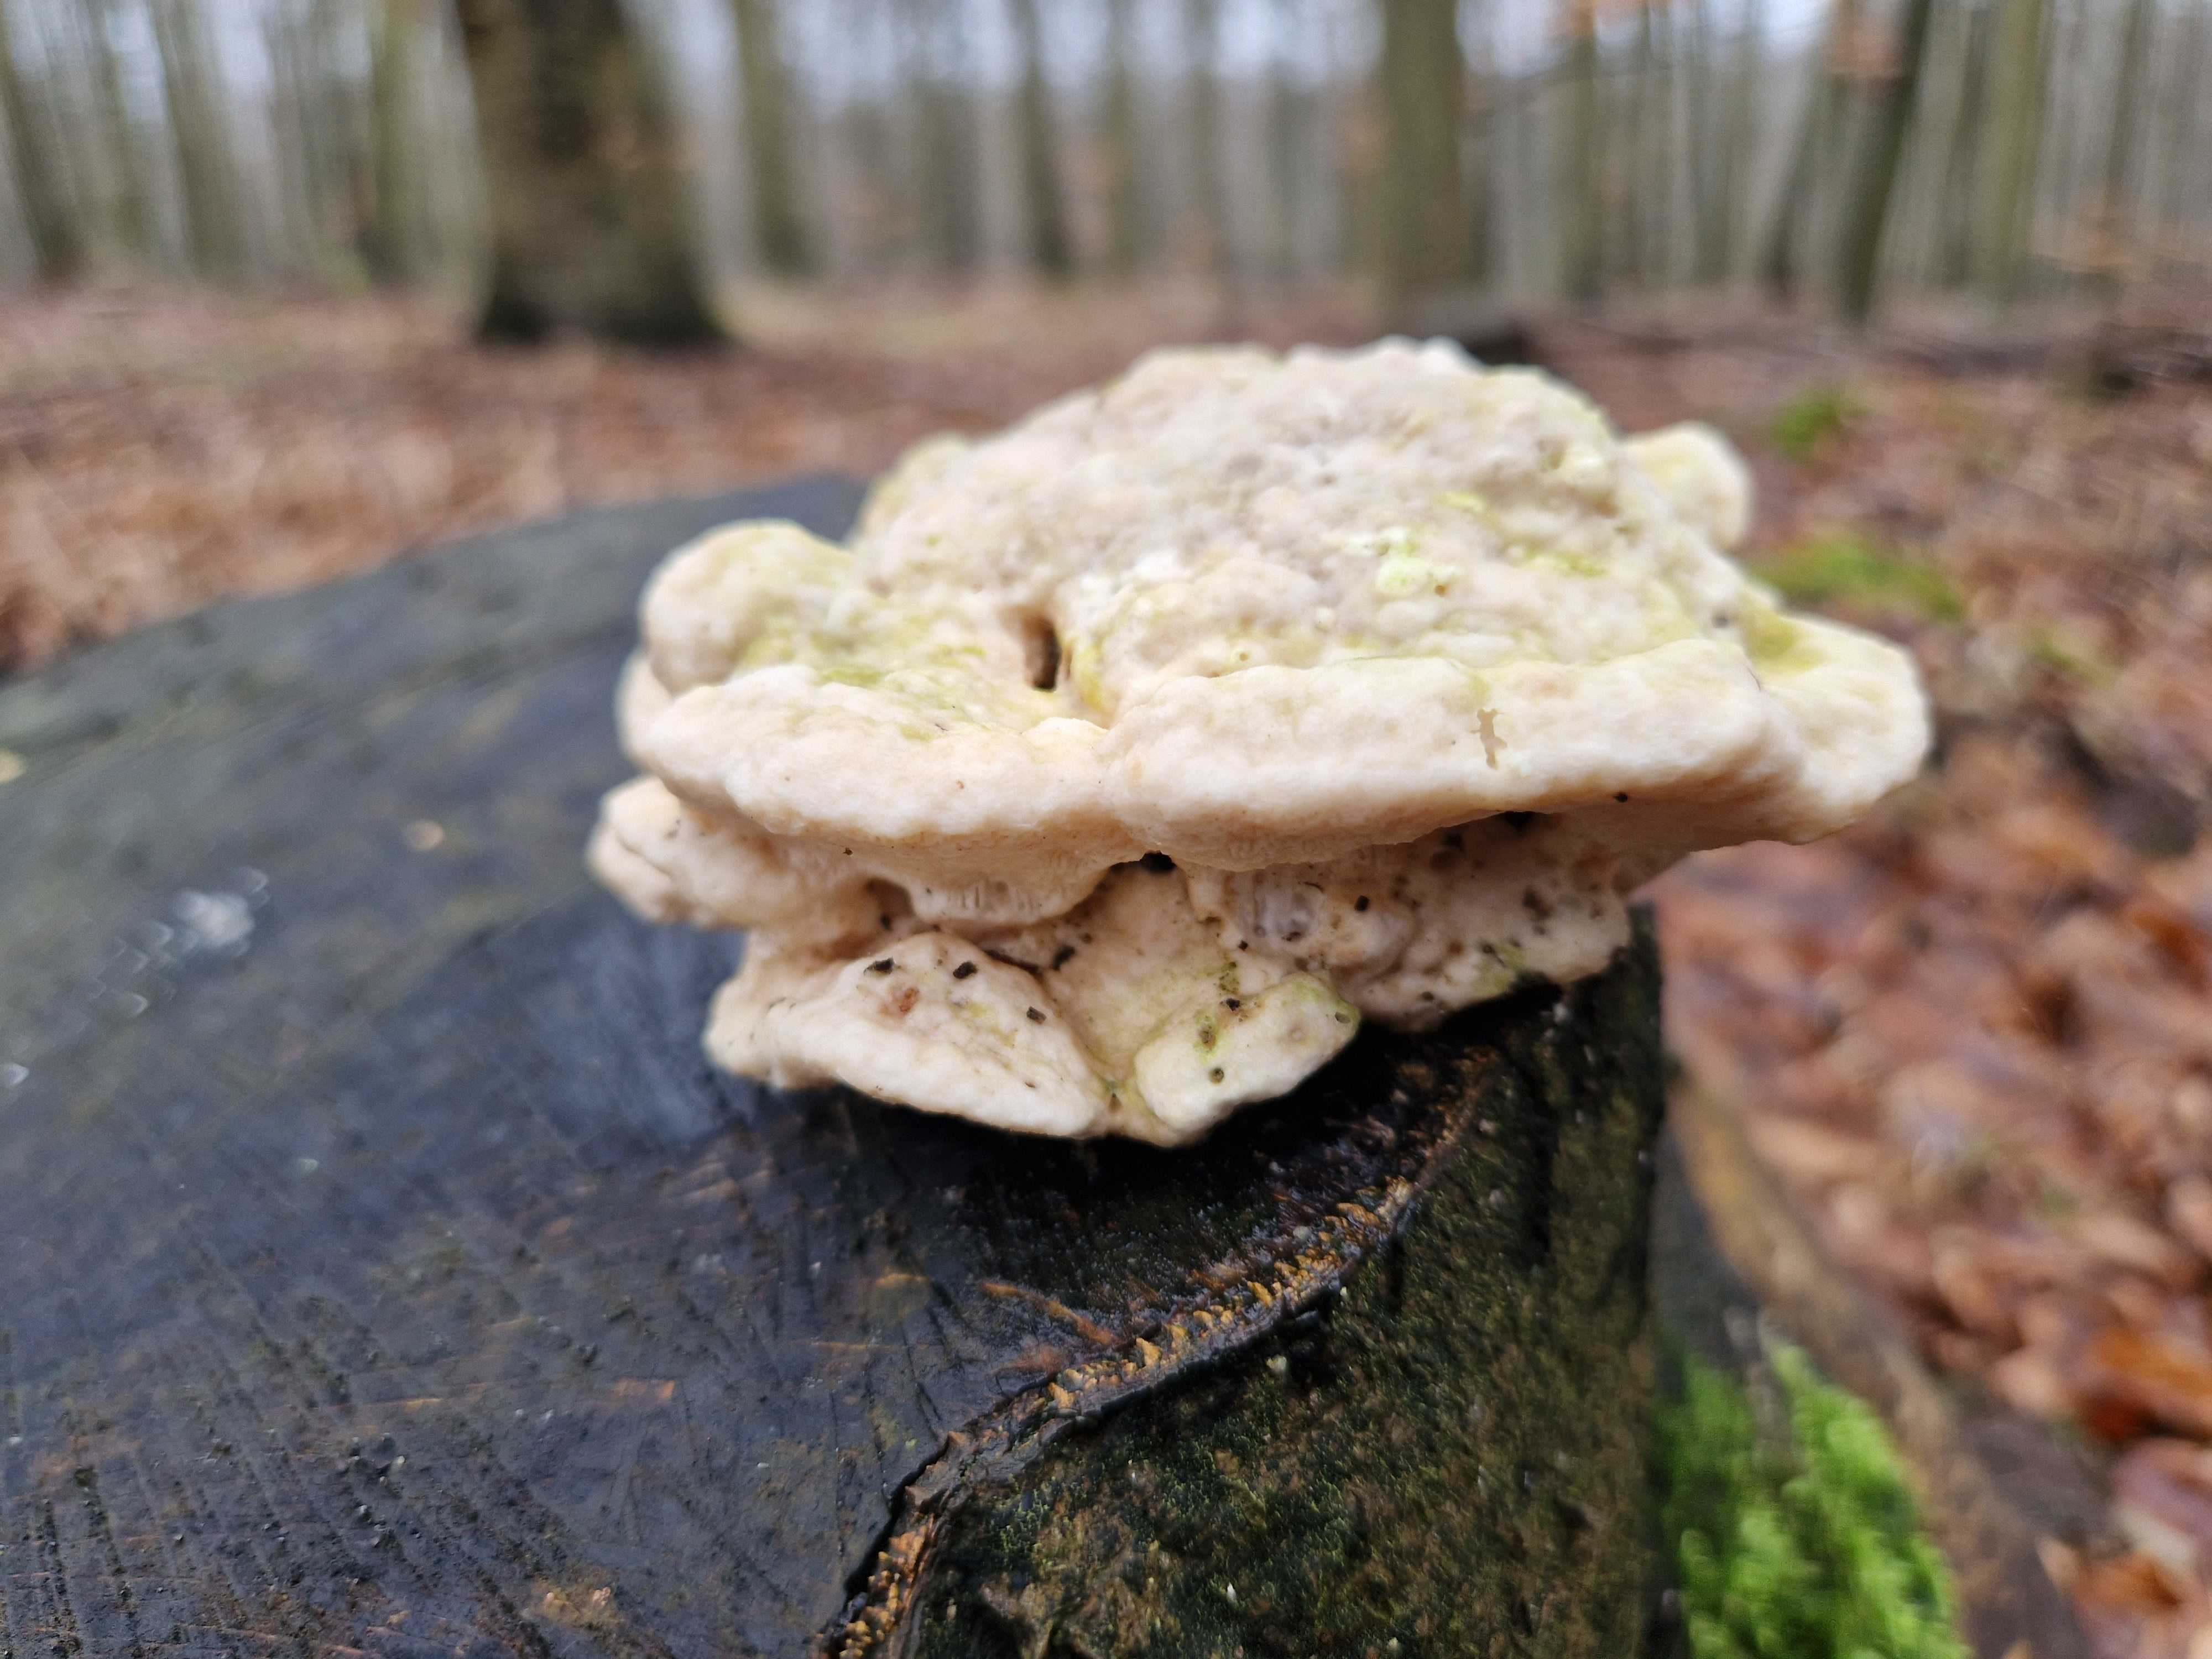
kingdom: Fungi
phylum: Basidiomycota
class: Agaricomycetes
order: Polyporales
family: Polyporaceae
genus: Trametes
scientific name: Trametes gibbosa
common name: puklet læderporesvamp
